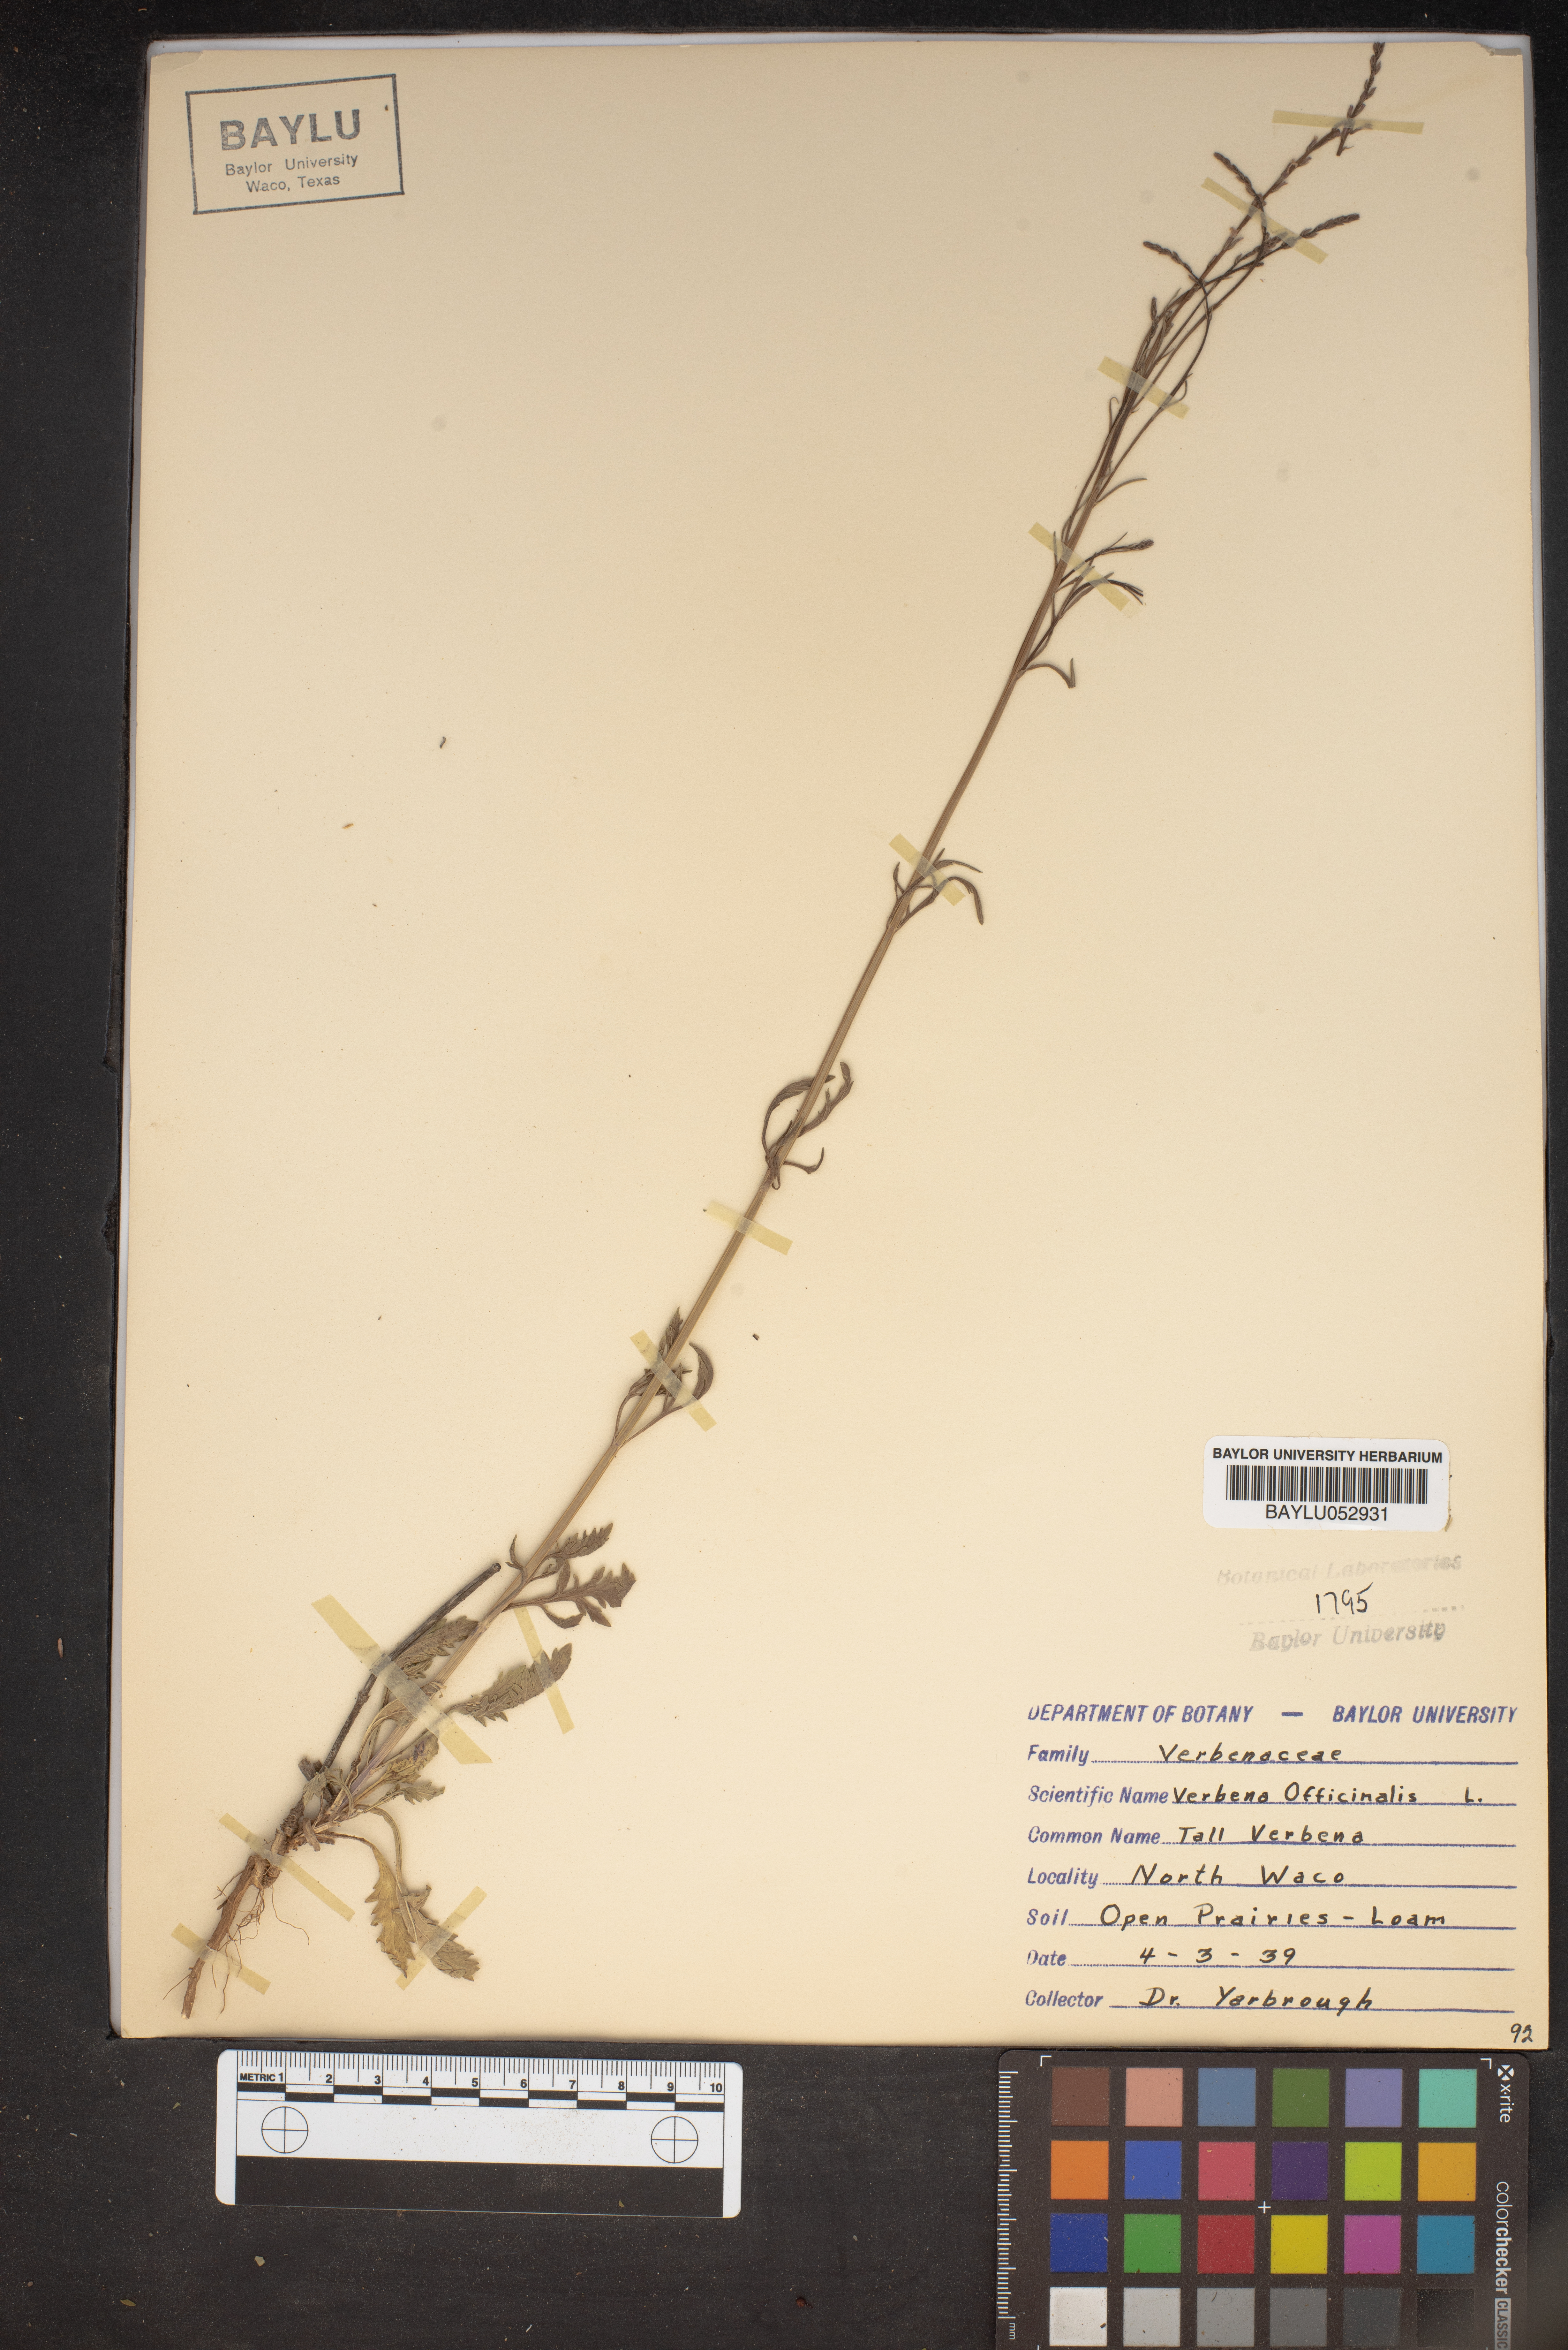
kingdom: Plantae
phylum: Tracheophyta
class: Magnoliopsida
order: Lamiales
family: Verbenaceae
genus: Verbena
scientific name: Verbena officinalis
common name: Vervain
